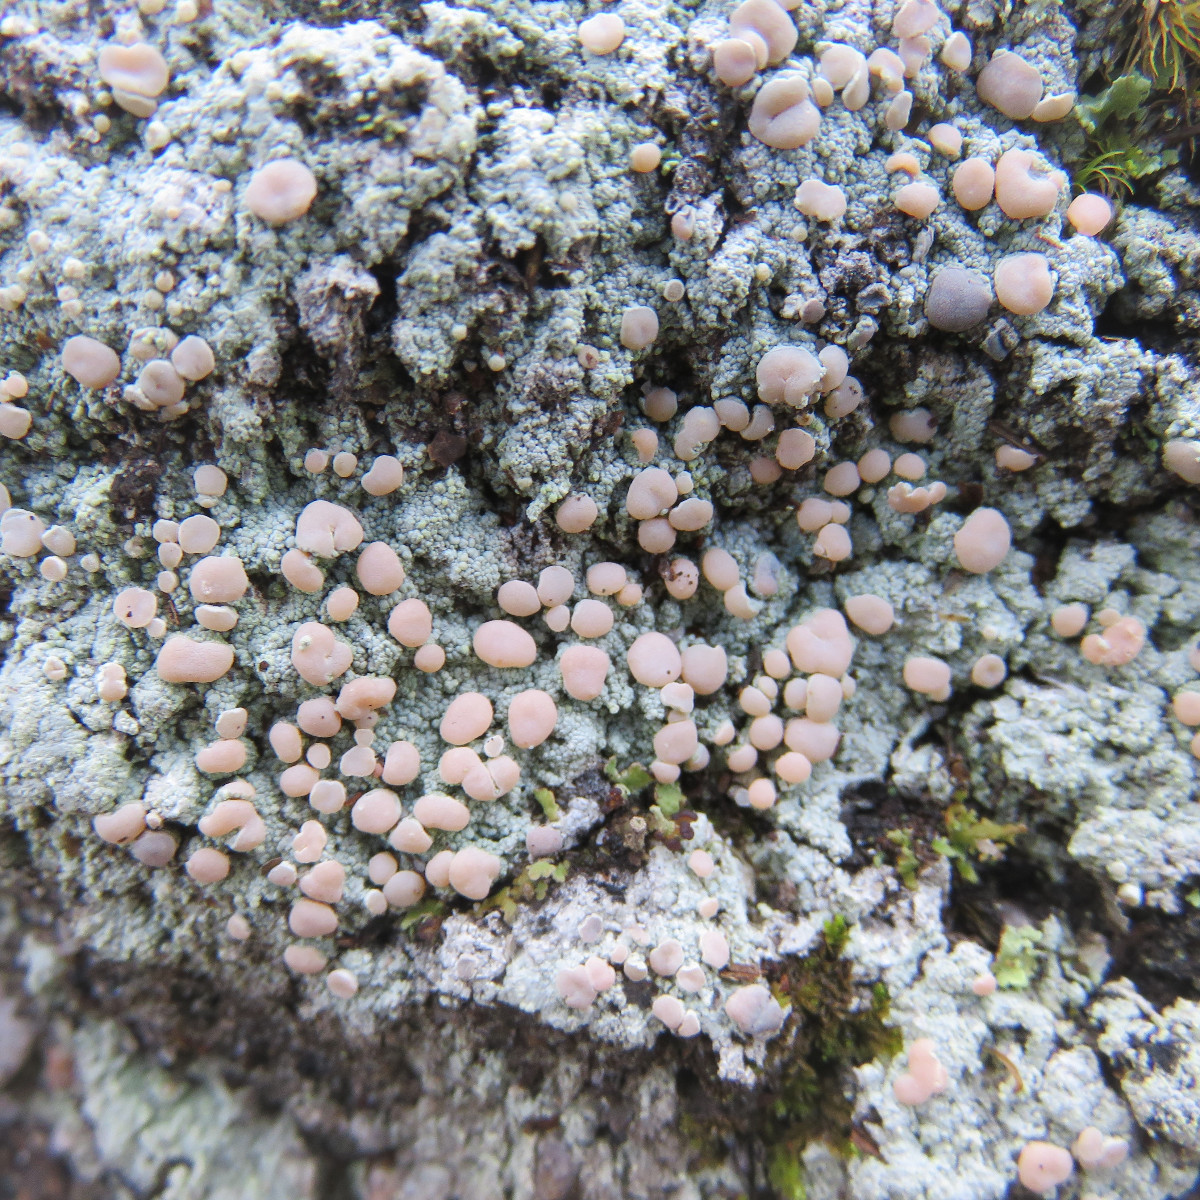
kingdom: Fungi
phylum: Ascomycota
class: Lecanoromycetes
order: Pertusariales
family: Icmadophilaceae
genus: Icmadophila
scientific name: Icmadophila ericetorum
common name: blegrød tørvelav
